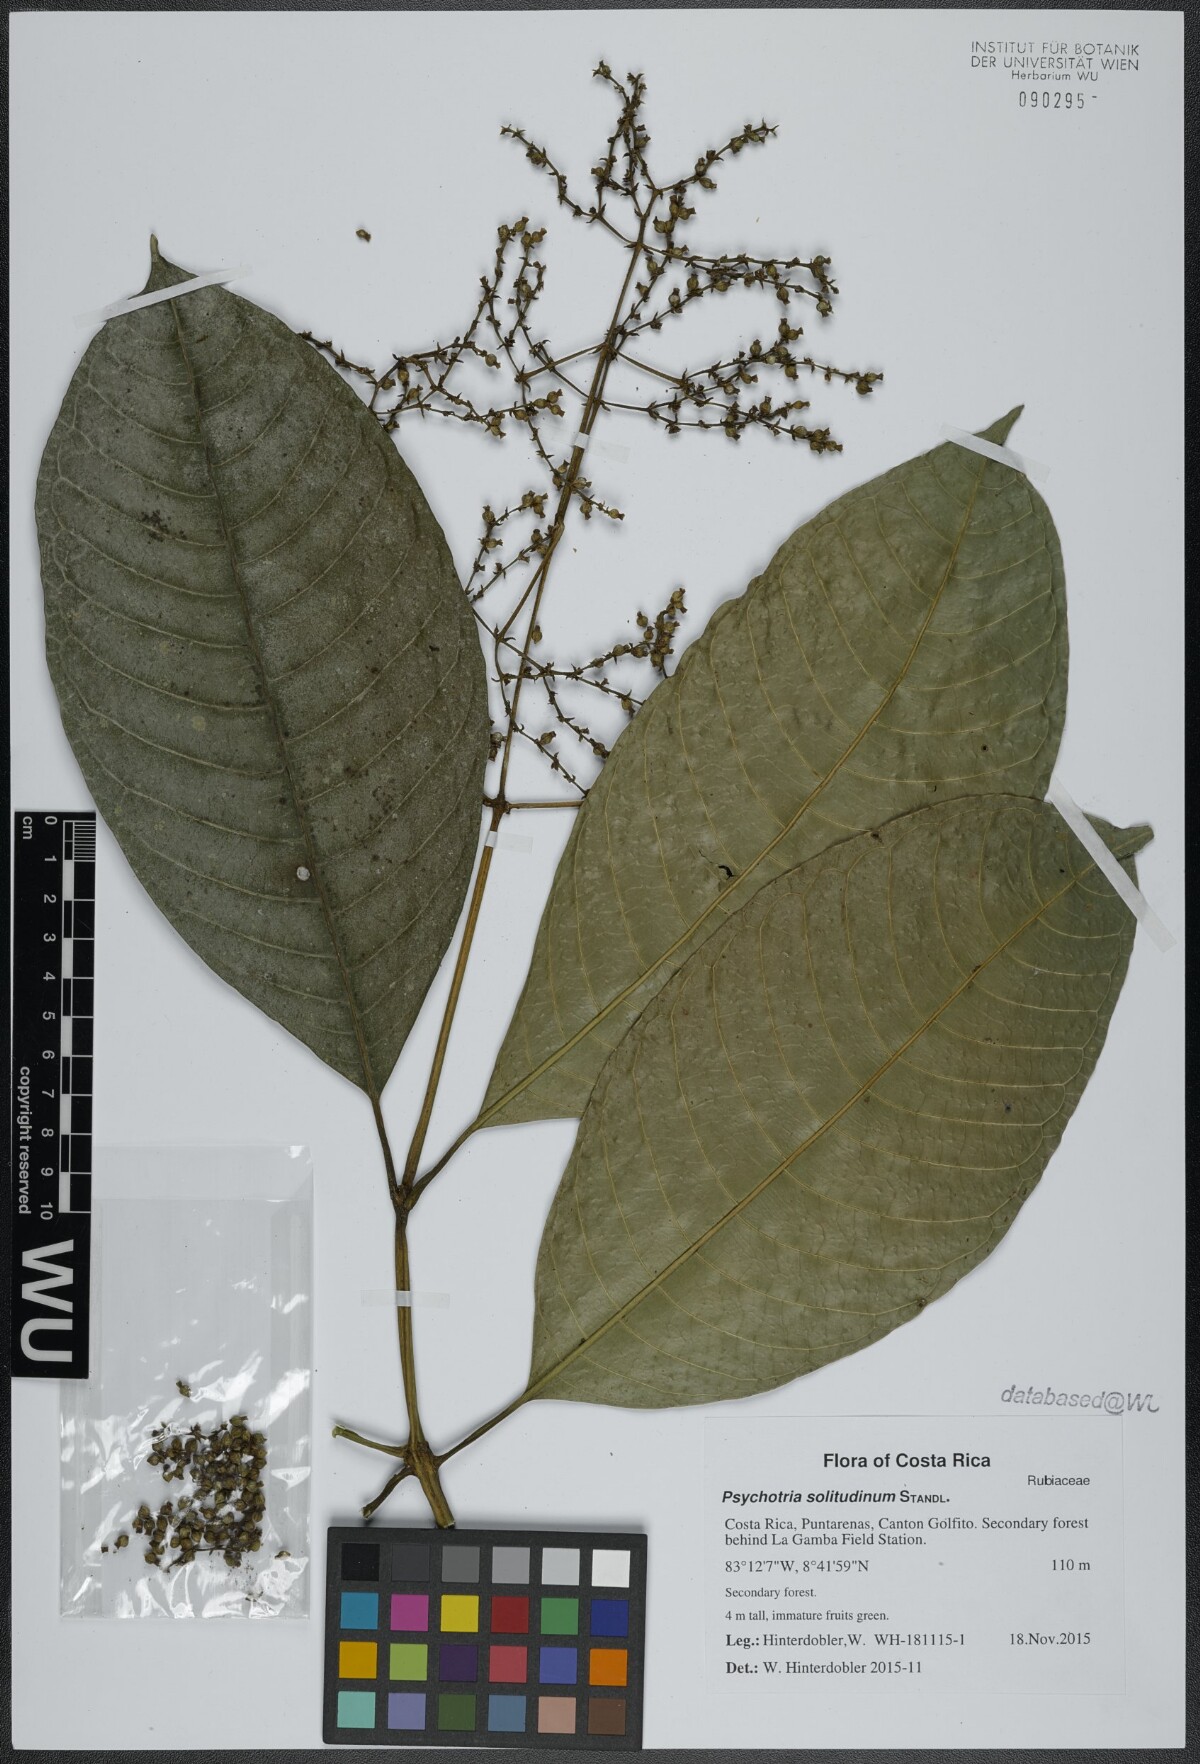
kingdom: Plantae
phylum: Tracheophyta
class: Magnoliopsida
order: Gentianales
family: Rubiaceae
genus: Palicourea
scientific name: Palicourea solitudinum
